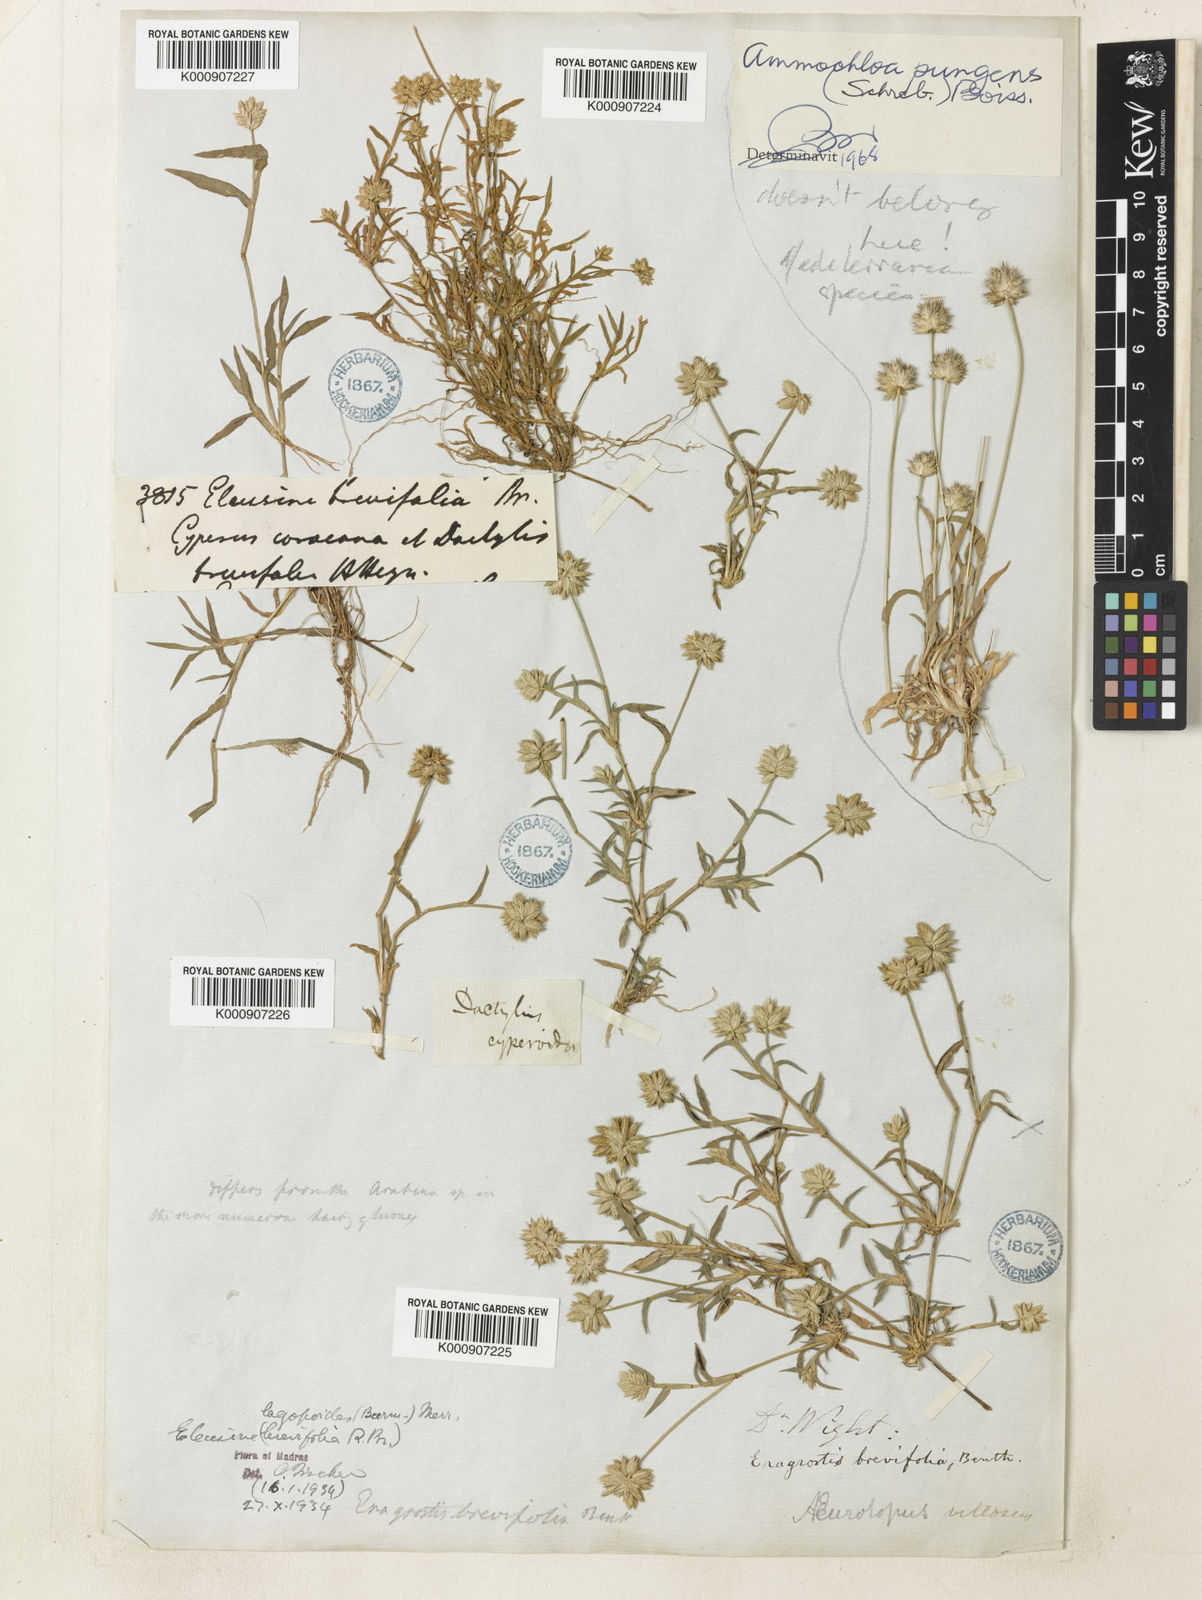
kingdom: Plantae
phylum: Tracheophyta
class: Liliopsida
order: Poales
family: Poaceae
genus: Coelachyrum
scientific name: Coelachyrum lagopoides
